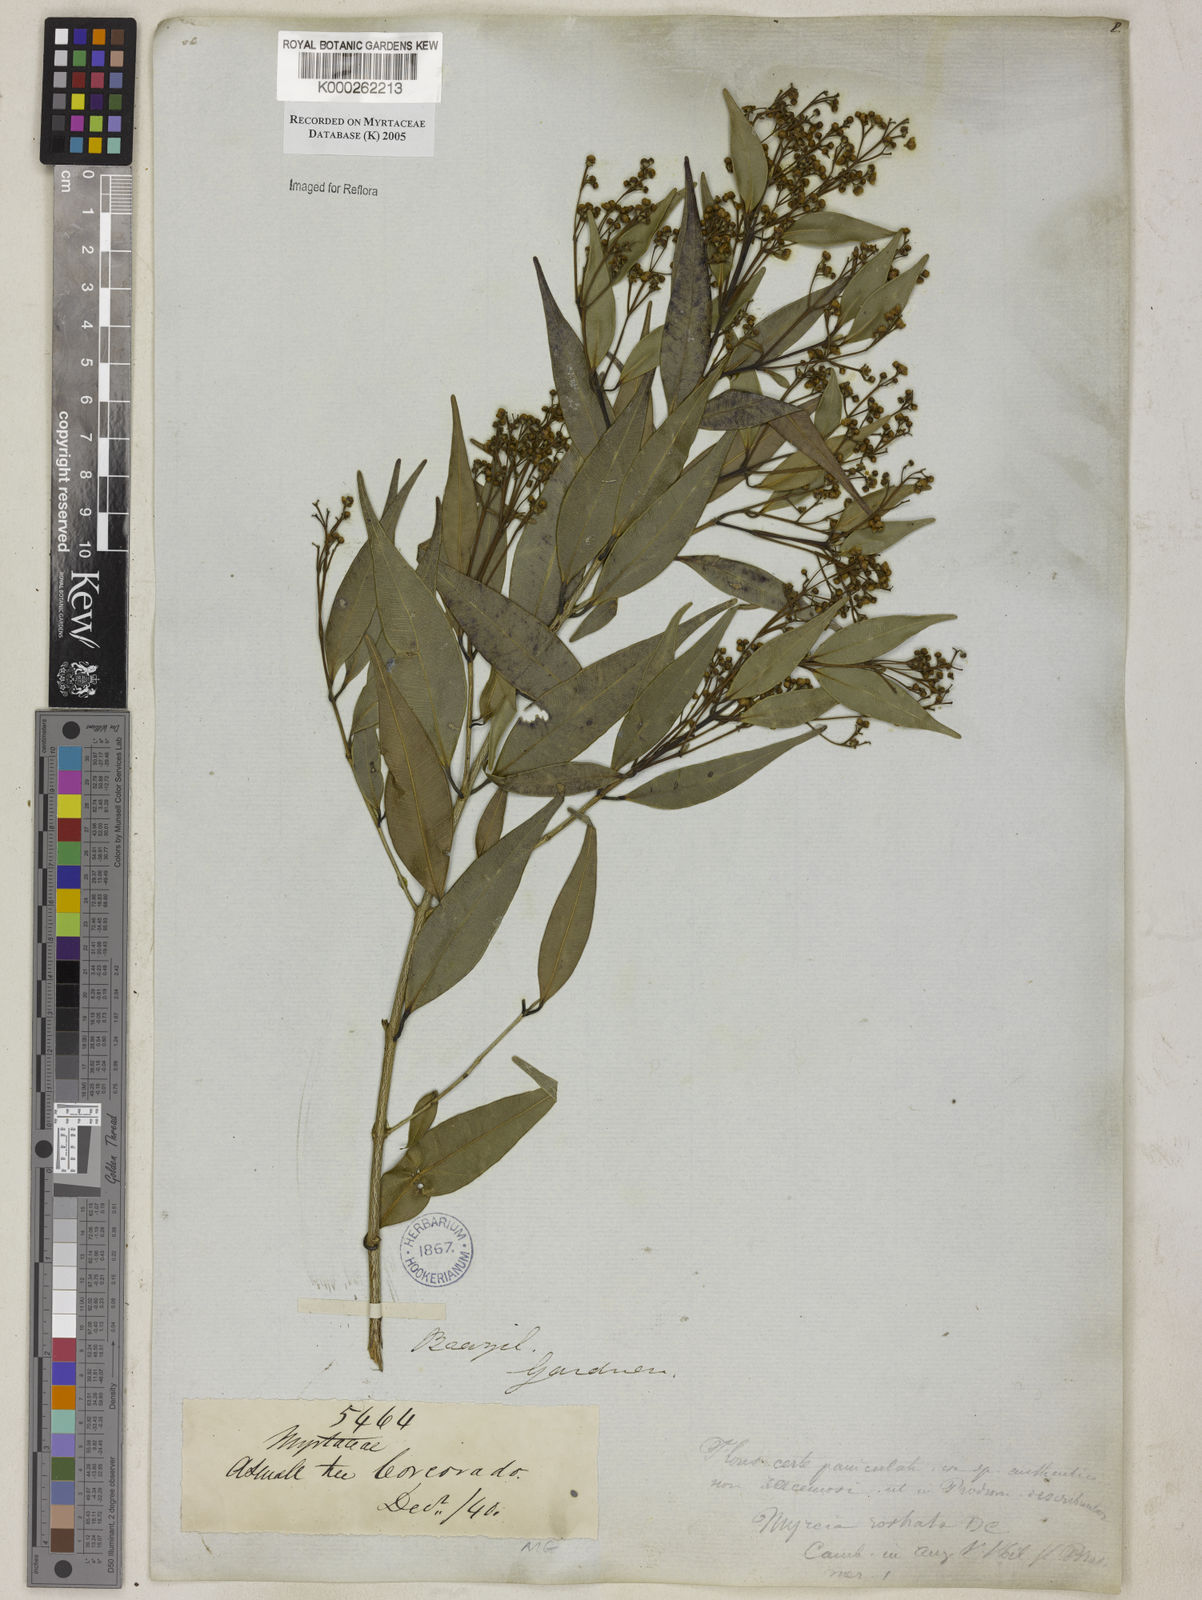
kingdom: Plantae
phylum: Tracheophyta
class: Magnoliopsida
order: Myrtales
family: Myrtaceae
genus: Myrcia
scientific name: Myrcia splendens
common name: Surinam cherry
